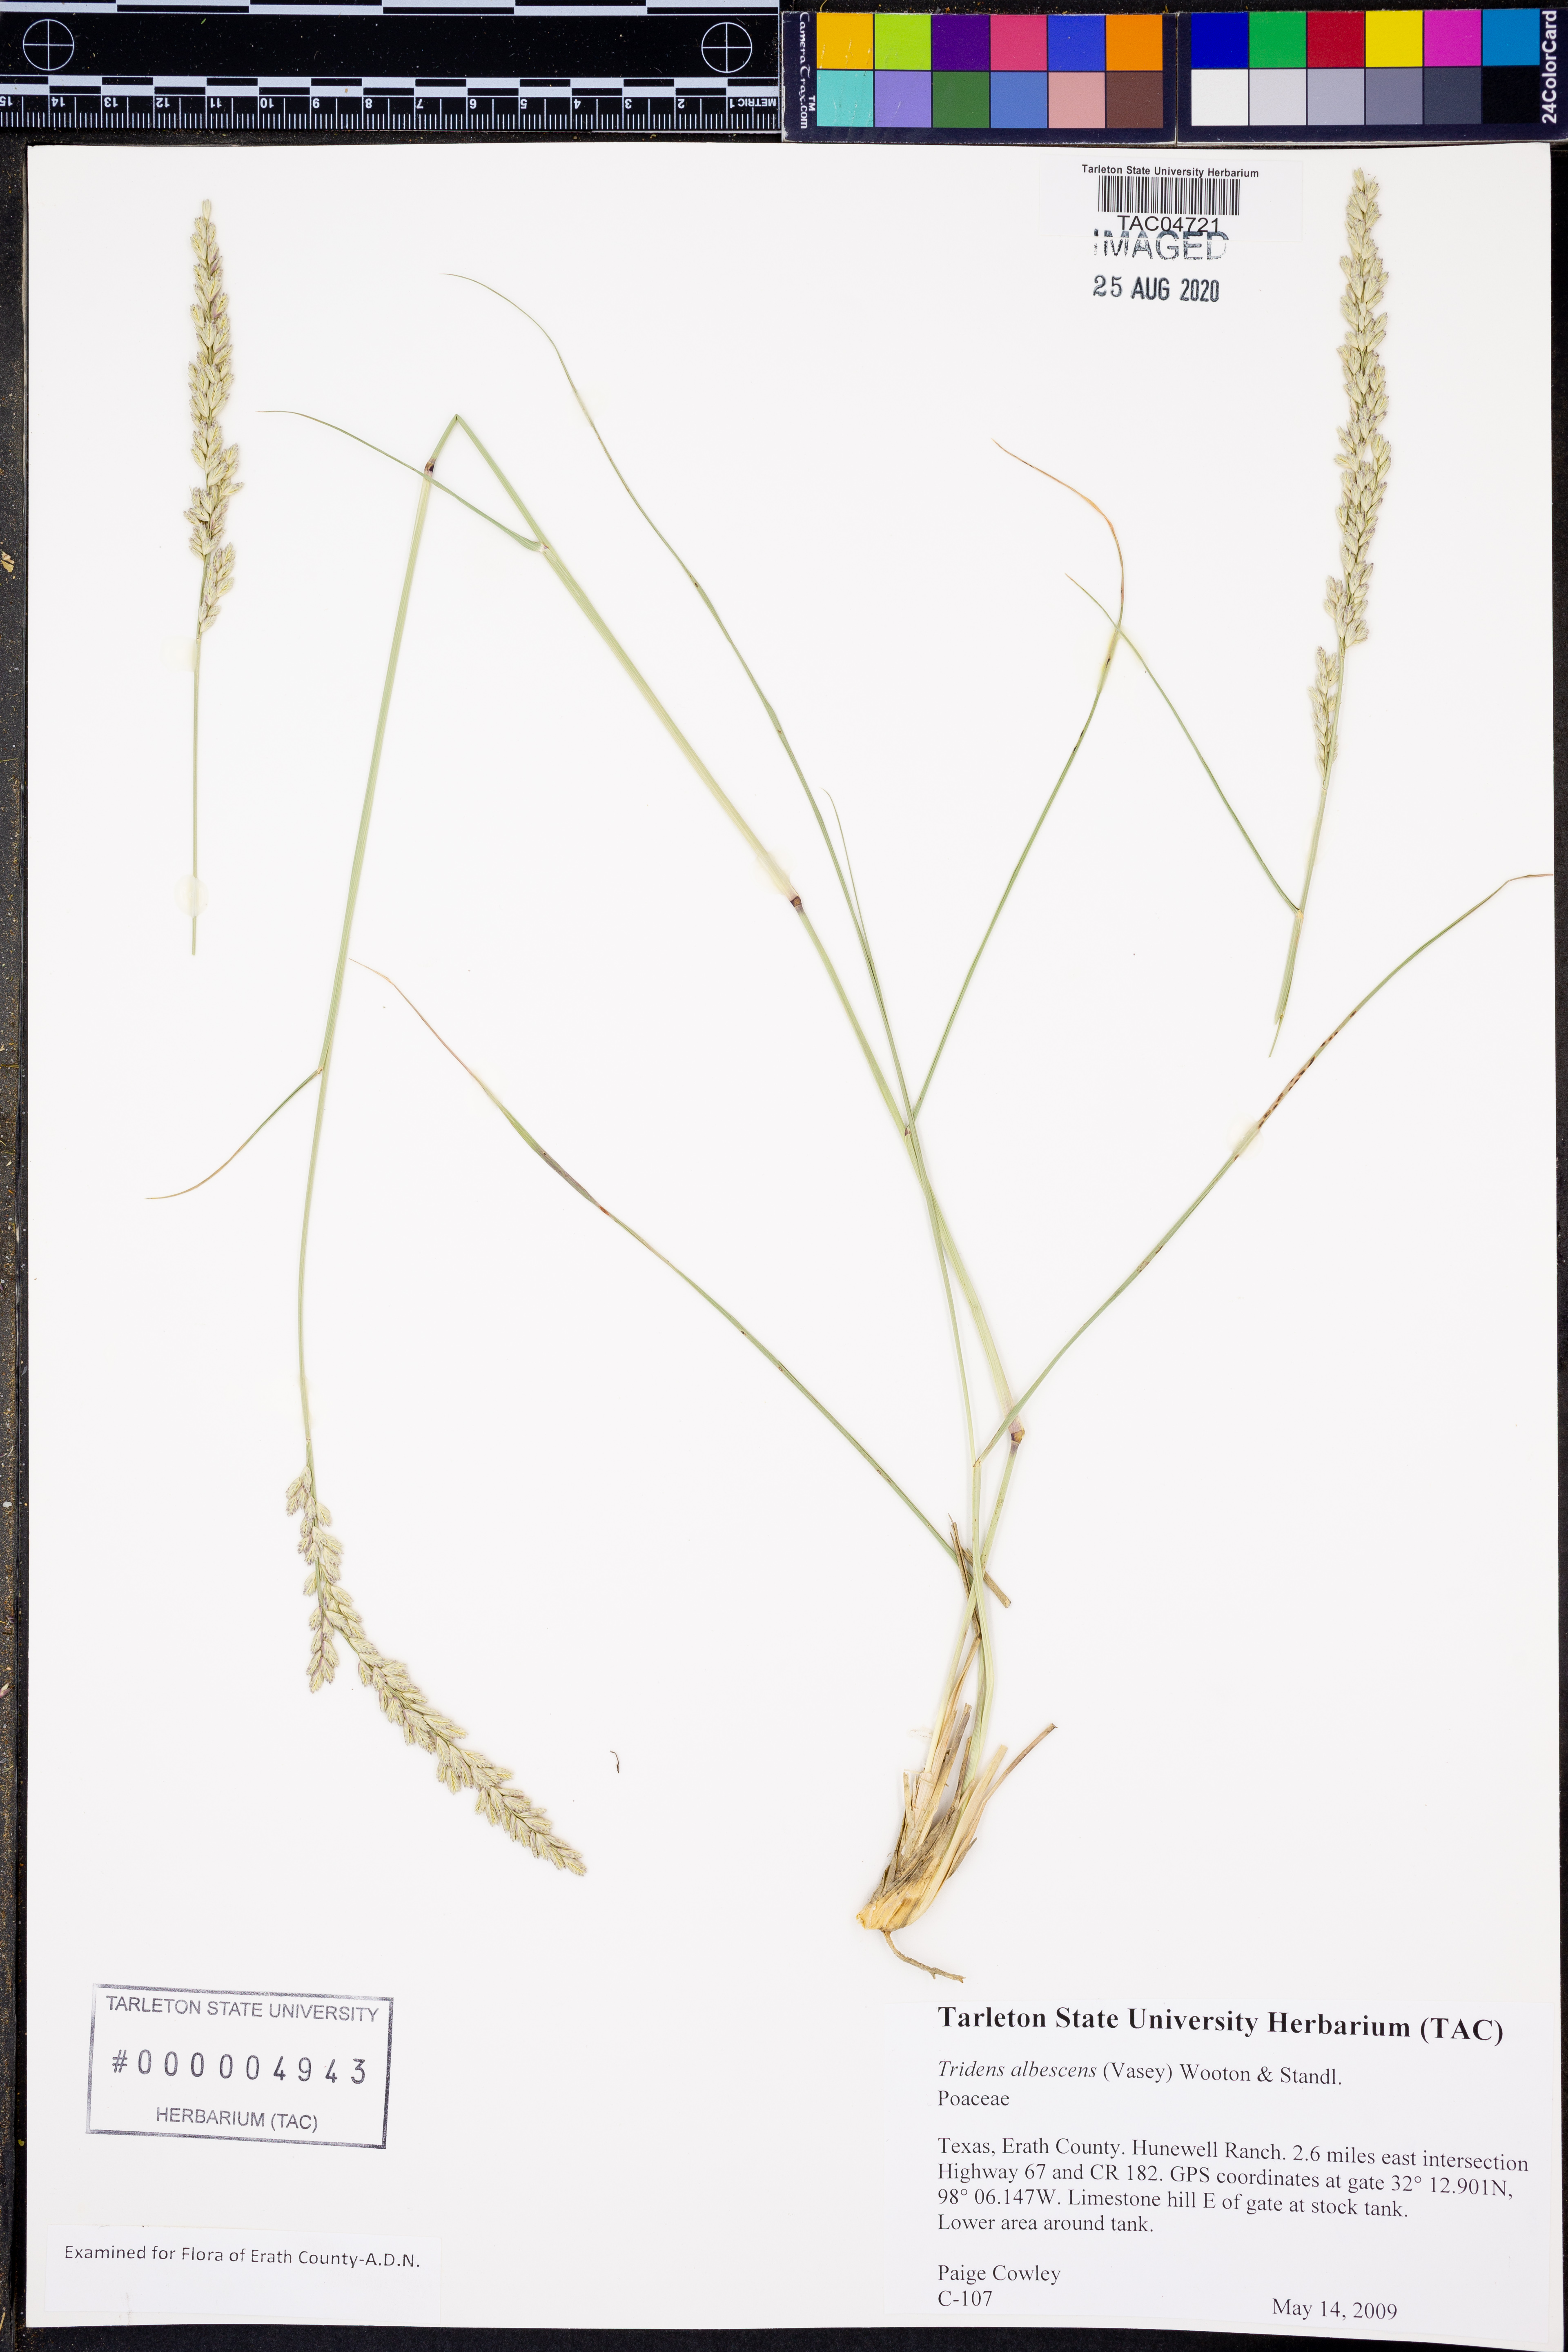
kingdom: Plantae
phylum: Tracheophyta
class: Liliopsida
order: Poales
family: Poaceae
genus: Tridens
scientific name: Tridens albescens
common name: White tridens
